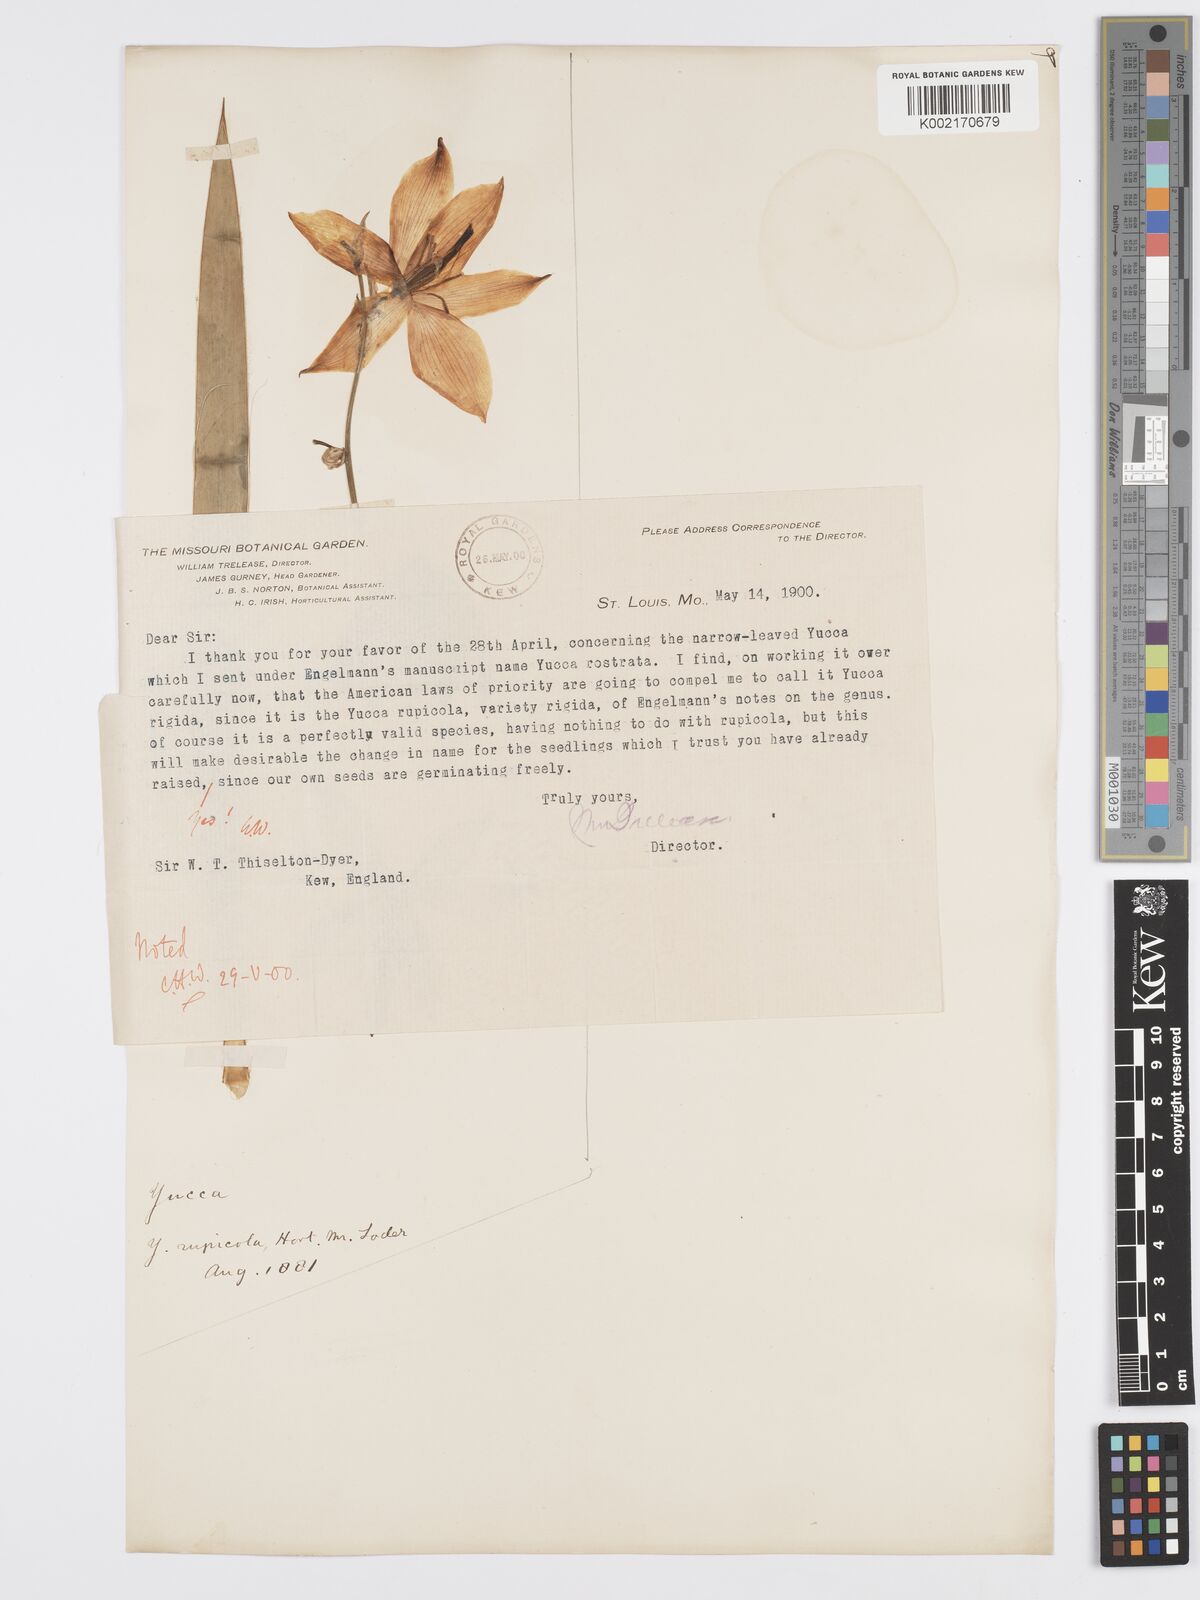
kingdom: Plantae
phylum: Tracheophyta
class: Liliopsida
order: Asparagales
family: Asparagaceae
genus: Yucca
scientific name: Yucca rupicola
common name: Twisted-leaf spanish-dagger
